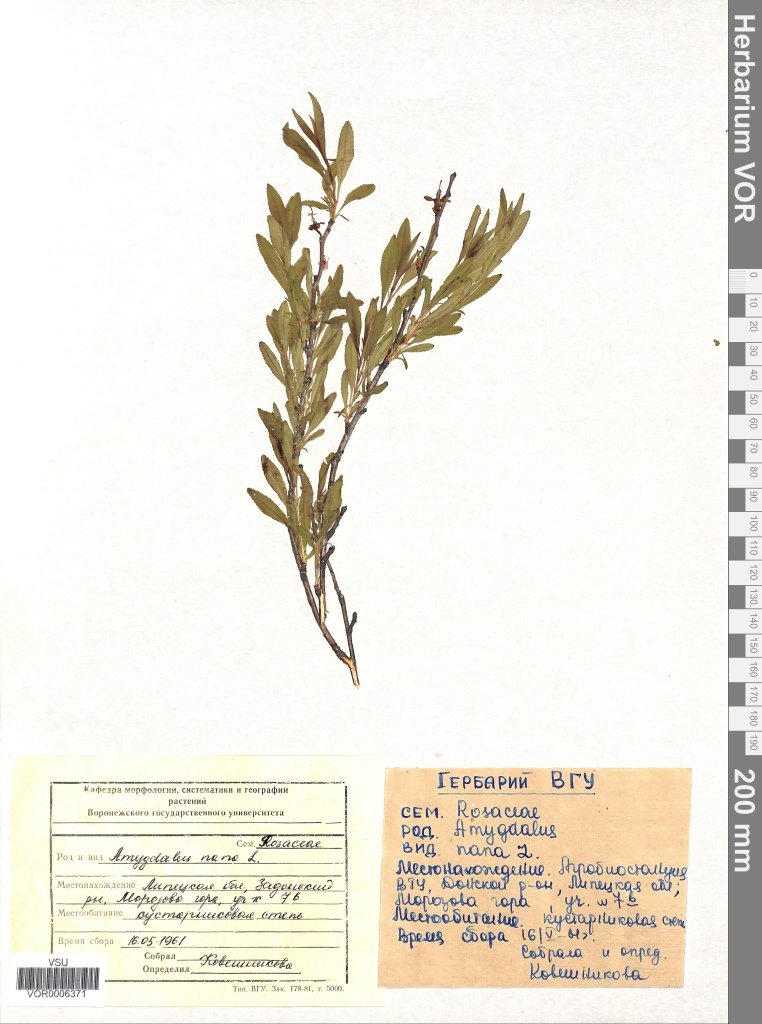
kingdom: Plantae
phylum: Tracheophyta
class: Magnoliopsida
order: Rosales
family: Rosaceae
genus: Prunus
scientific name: Prunus tenella
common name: Dwarf russian almond
